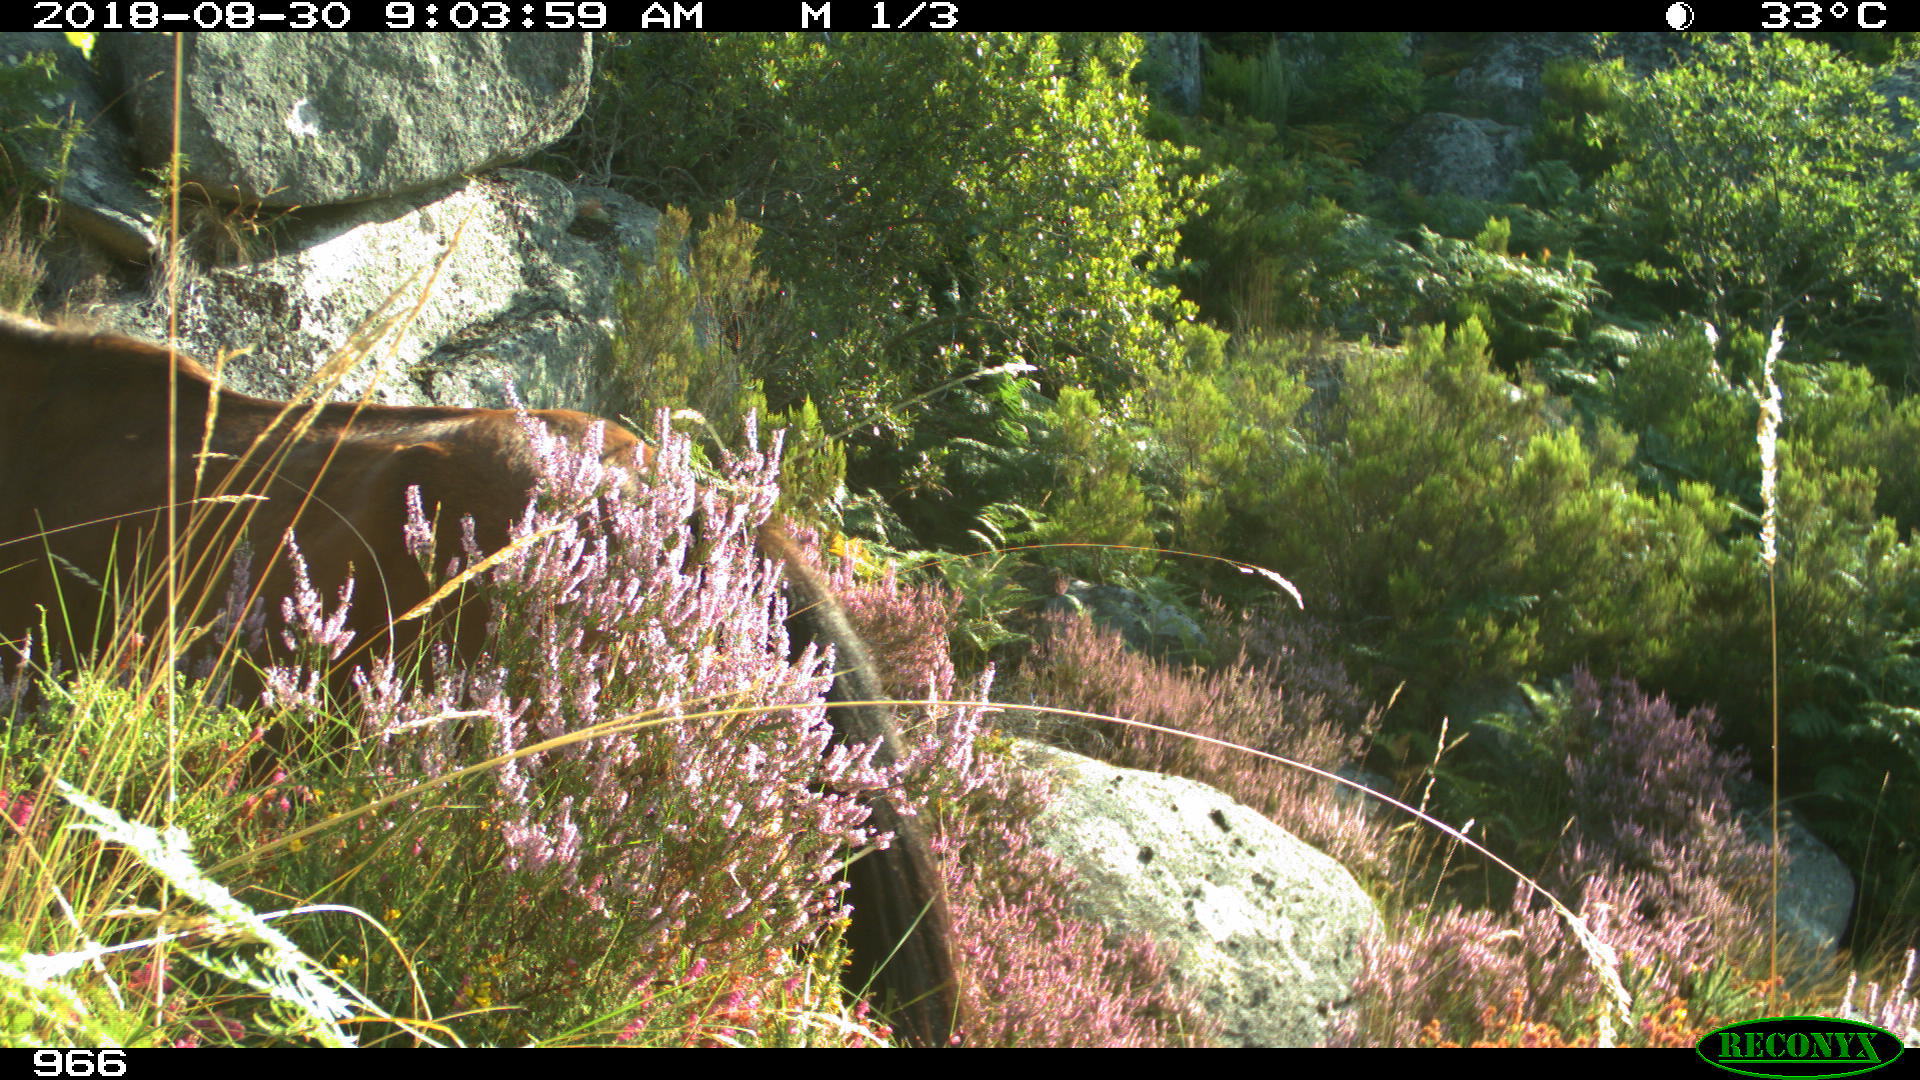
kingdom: Animalia
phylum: Chordata
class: Mammalia
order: Perissodactyla
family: Equidae
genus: Equus
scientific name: Equus caballus
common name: Horse
